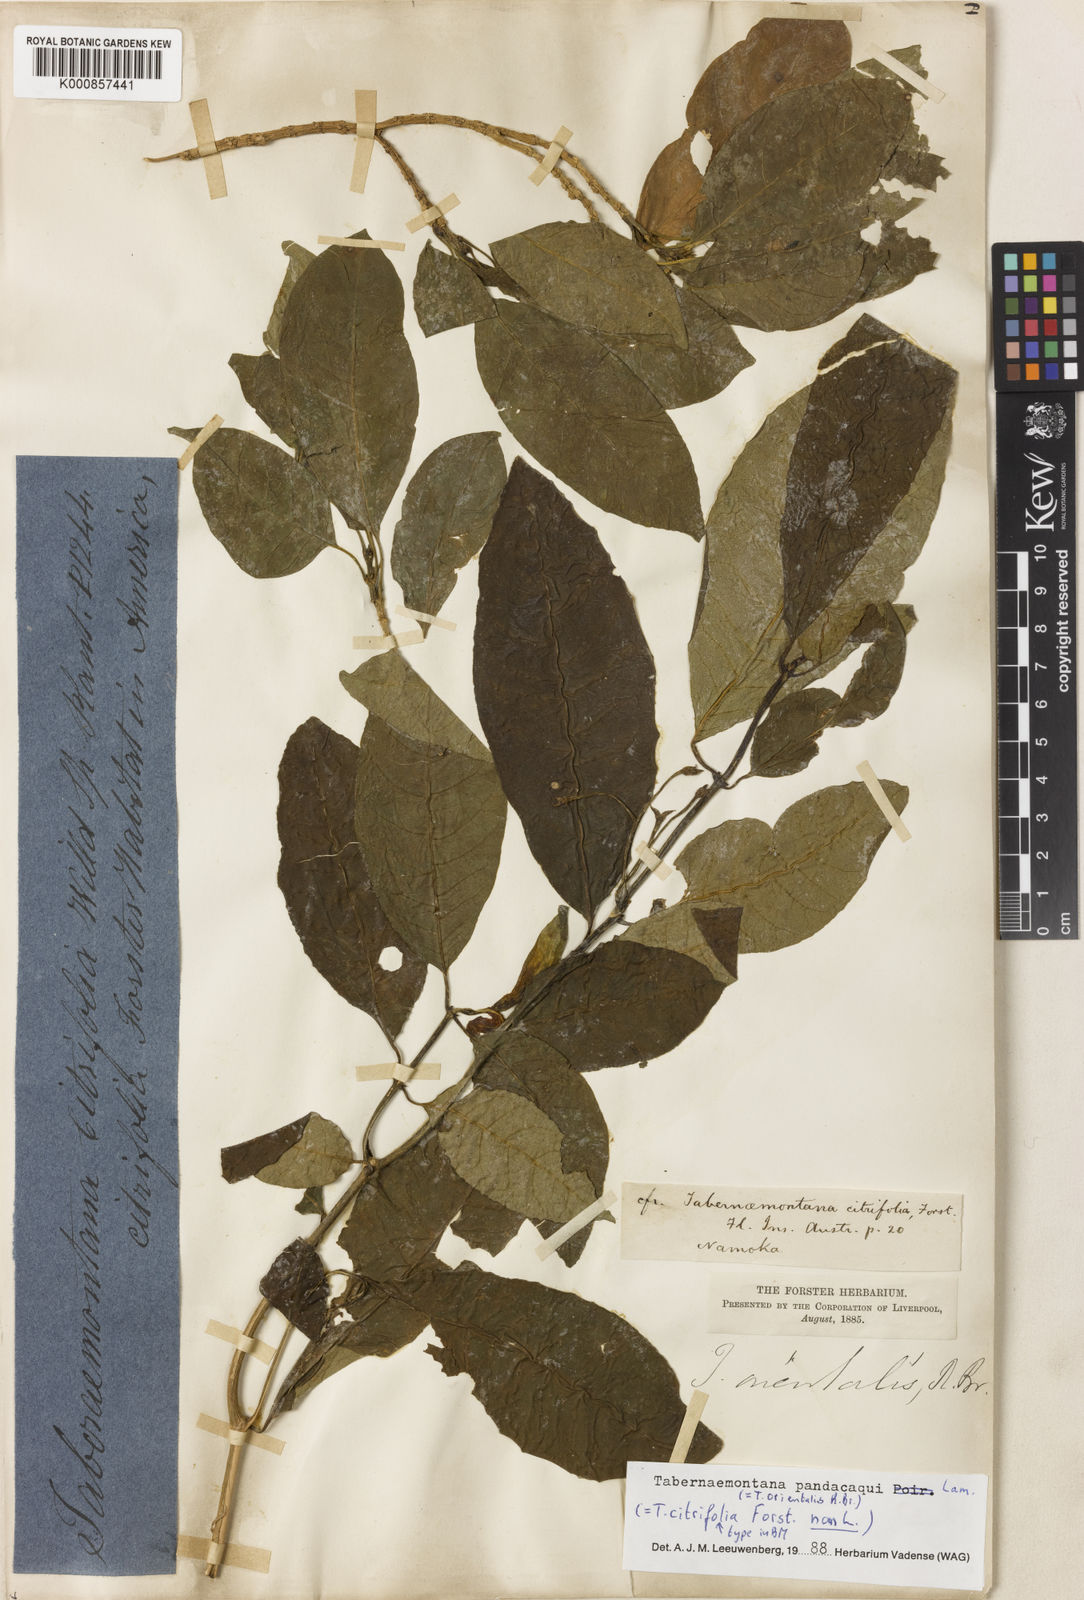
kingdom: Plantae
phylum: Tracheophyta
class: Magnoliopsida
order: Gentianales
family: Apocynaceae
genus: Tabernaemontana
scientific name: Tabernaemontana
